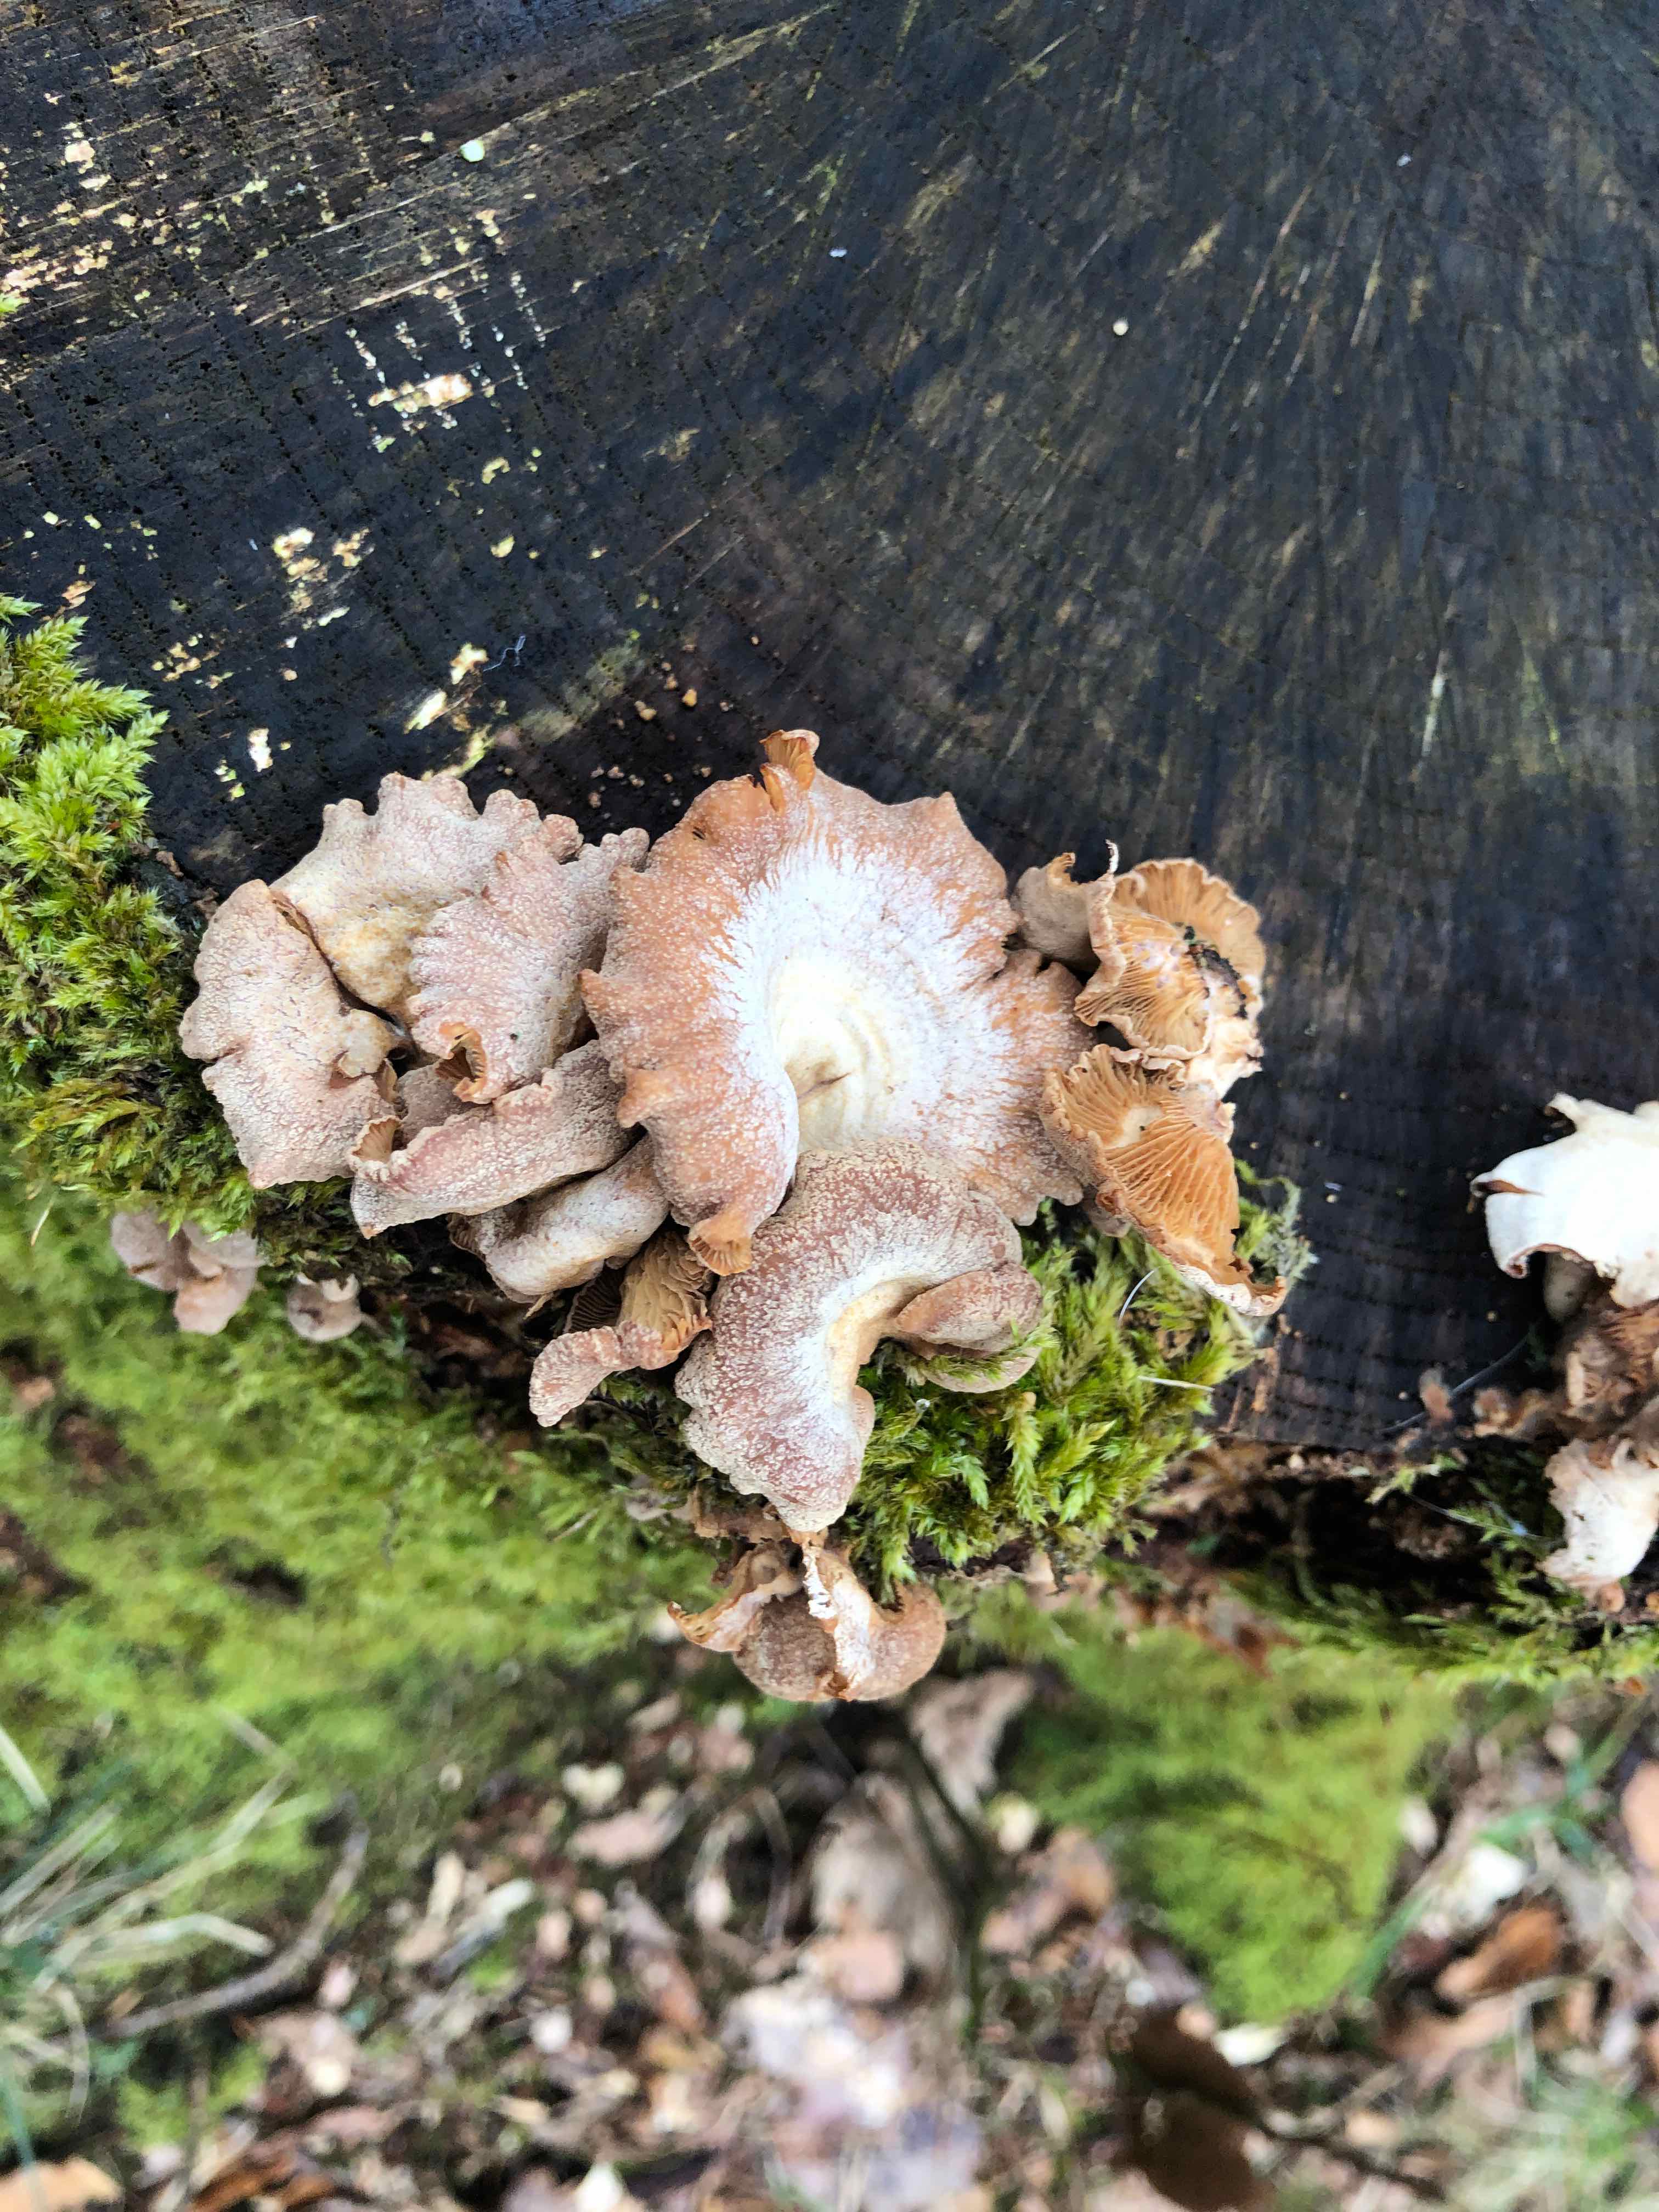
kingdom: Fungi
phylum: Basidiomycota
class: Agaricomycetes
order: Agaricales
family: Mycenaceae
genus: Panellus
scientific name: Panellus stipticus
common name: kliddet epaulethat
